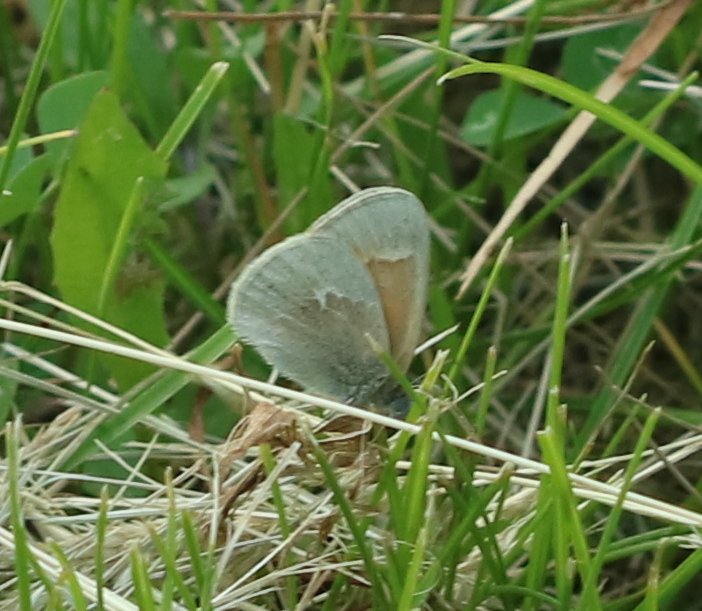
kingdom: Animalia
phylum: Arthropoda
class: Insecta
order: Lepidoptera
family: Nymphalidae
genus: Coenonympha
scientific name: Coenonympha tullia
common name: Large Heath
